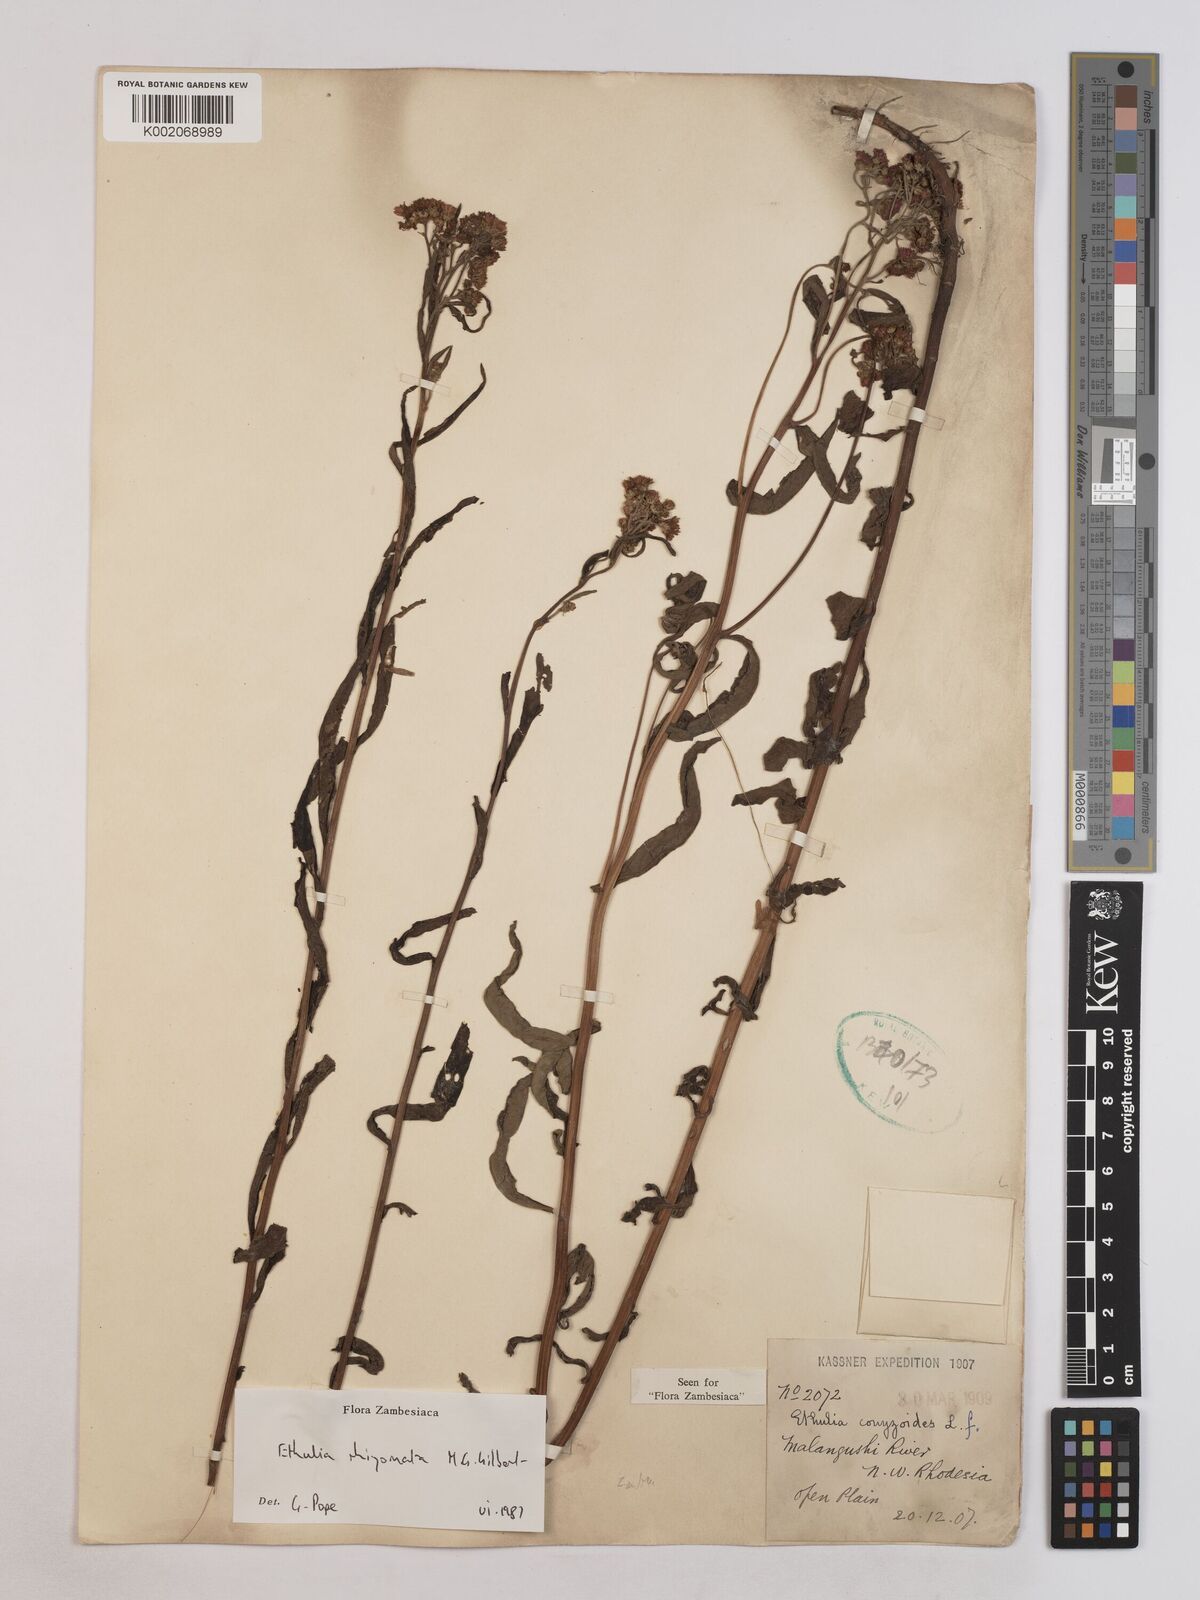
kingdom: Plantae
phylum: Tracheophyta
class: Magnoliopsida
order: Asterales
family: Asteraceae
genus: Ethulia
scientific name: Ethulia rhizomata
